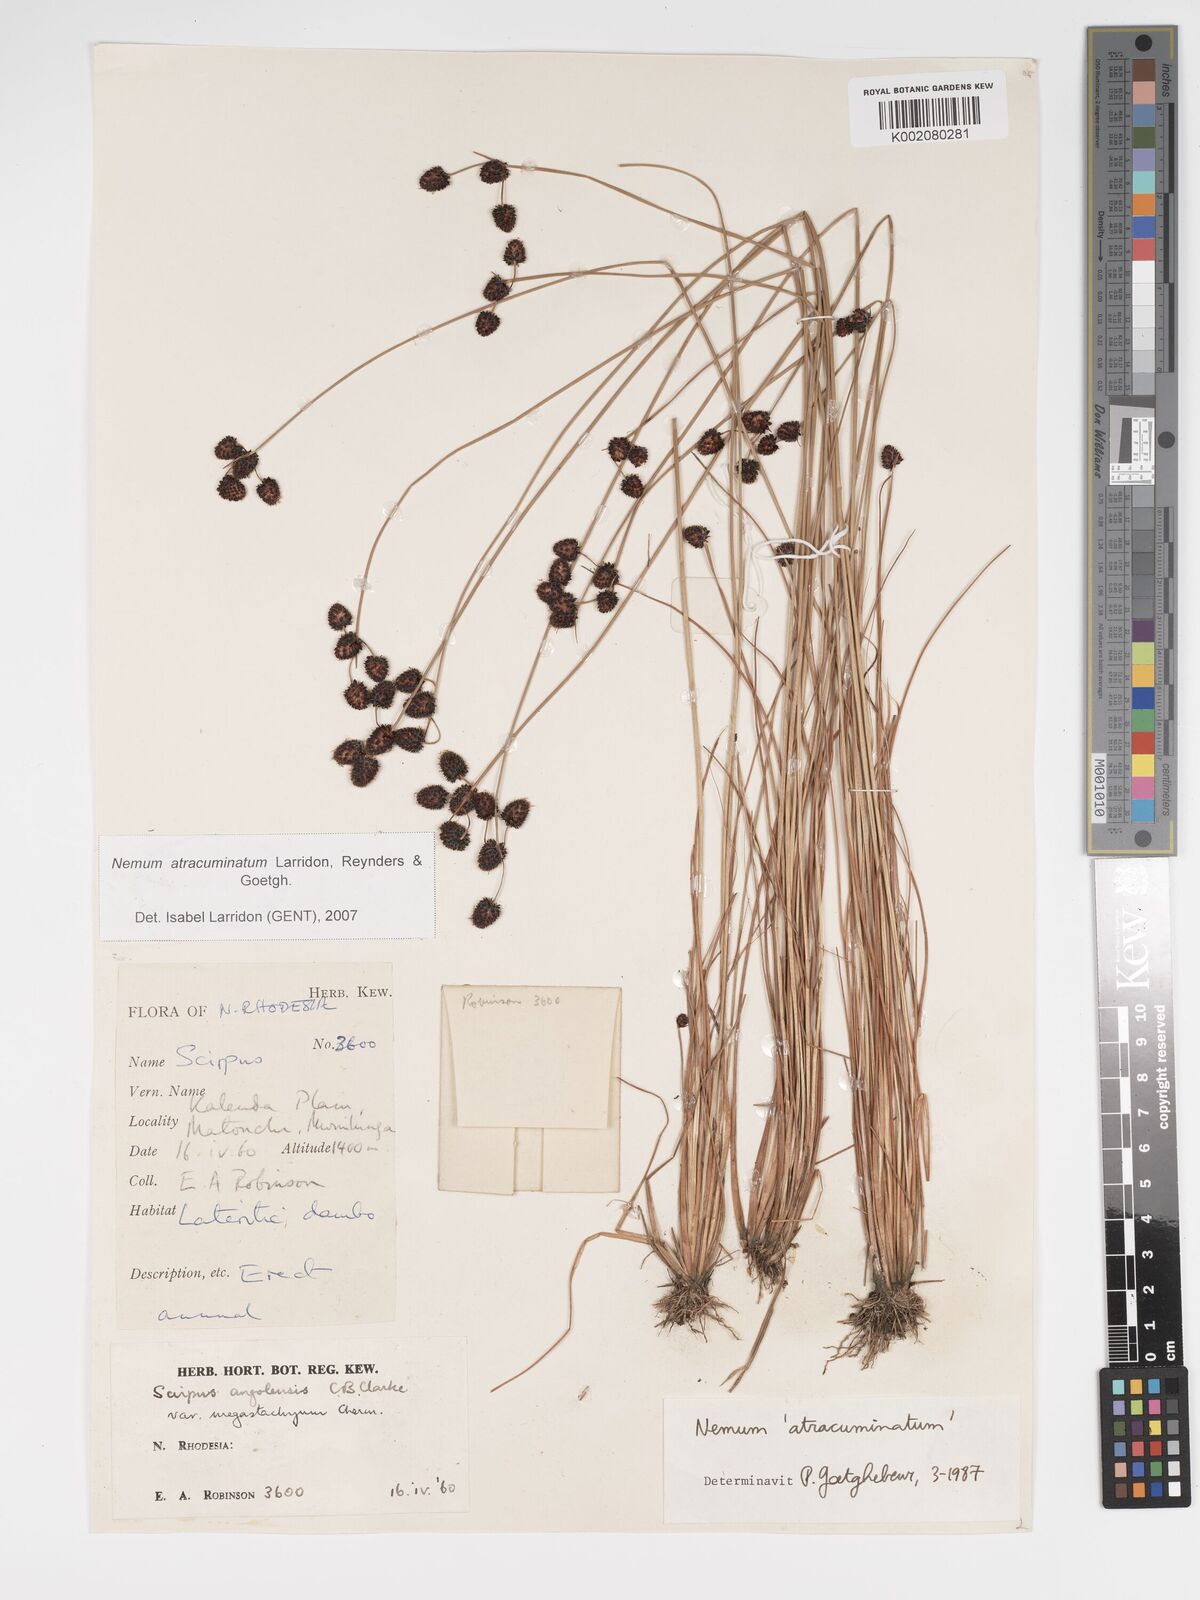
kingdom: Plantae
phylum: Tracheophyta
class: Liliopsida
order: Poales
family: Cyperaceae
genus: Bulbostylis
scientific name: Bulbostylis atracuminata
